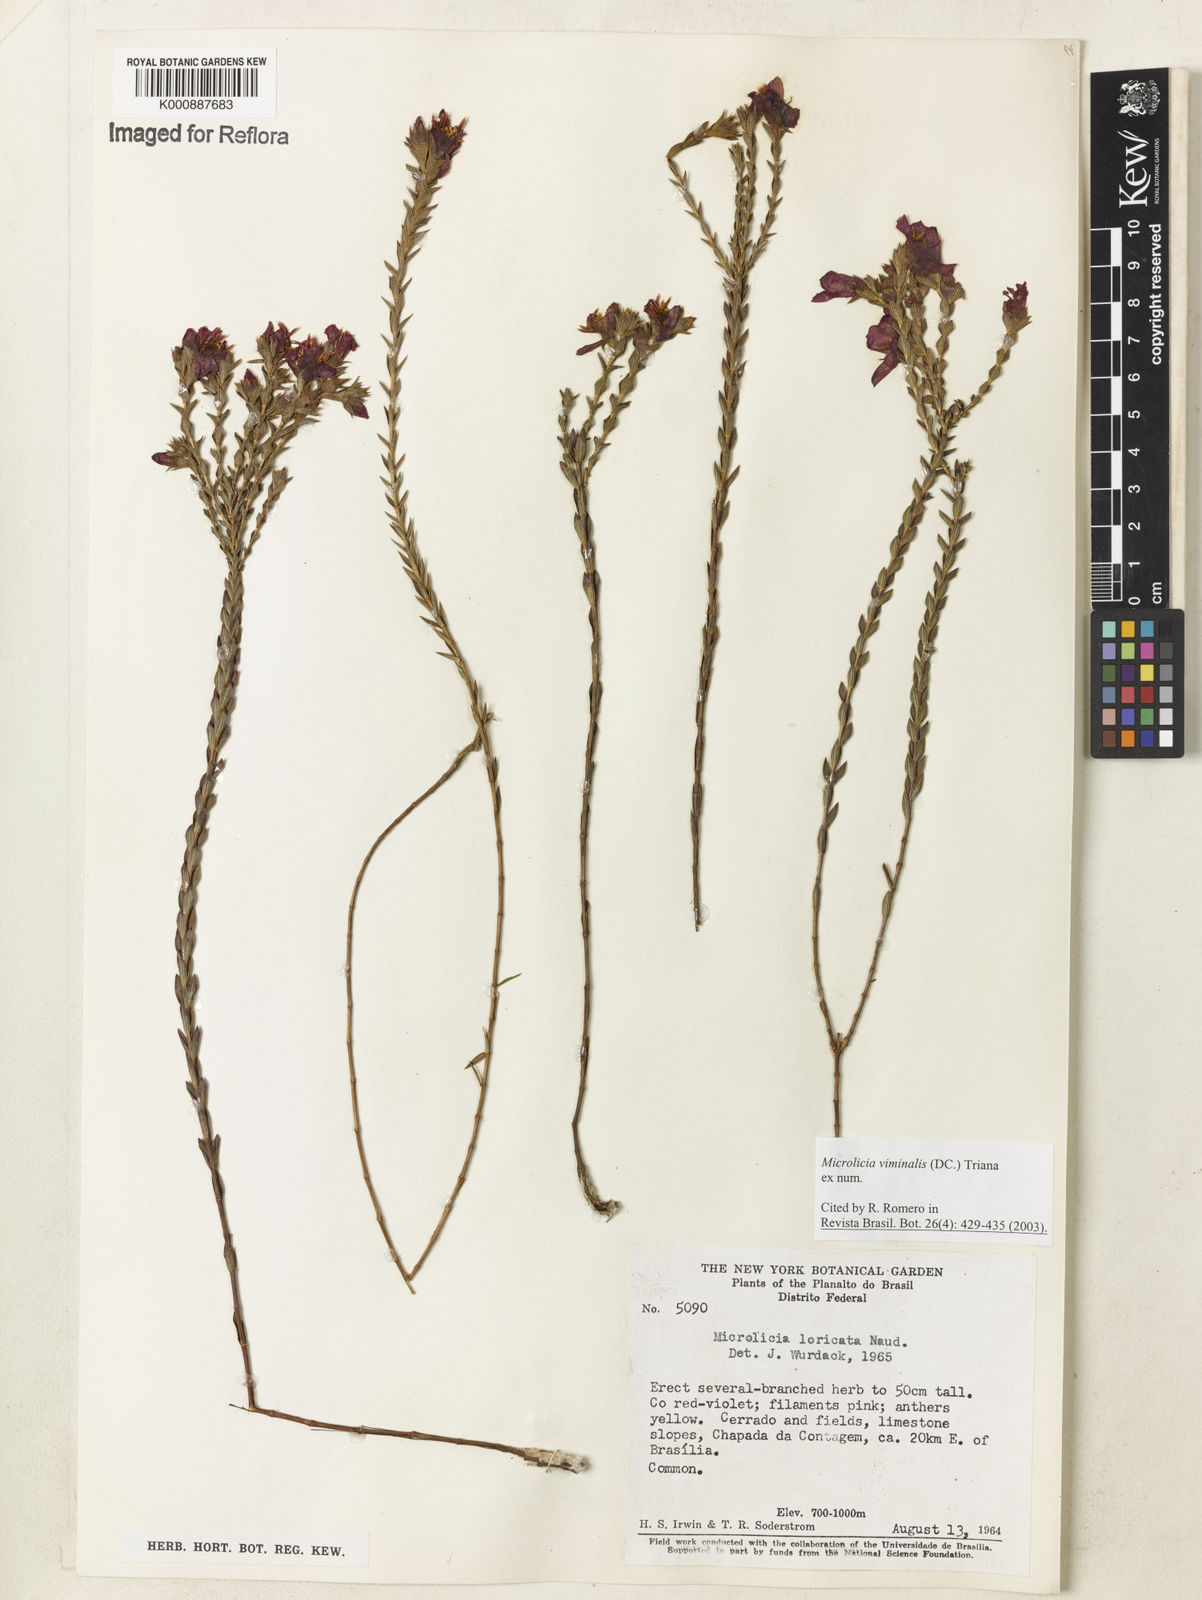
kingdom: Plantae
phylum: Tracheophyta
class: Magnoliopsida
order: Myrtales
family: Melastomataceae
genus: Microlicia
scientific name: Microlicia viminalis
